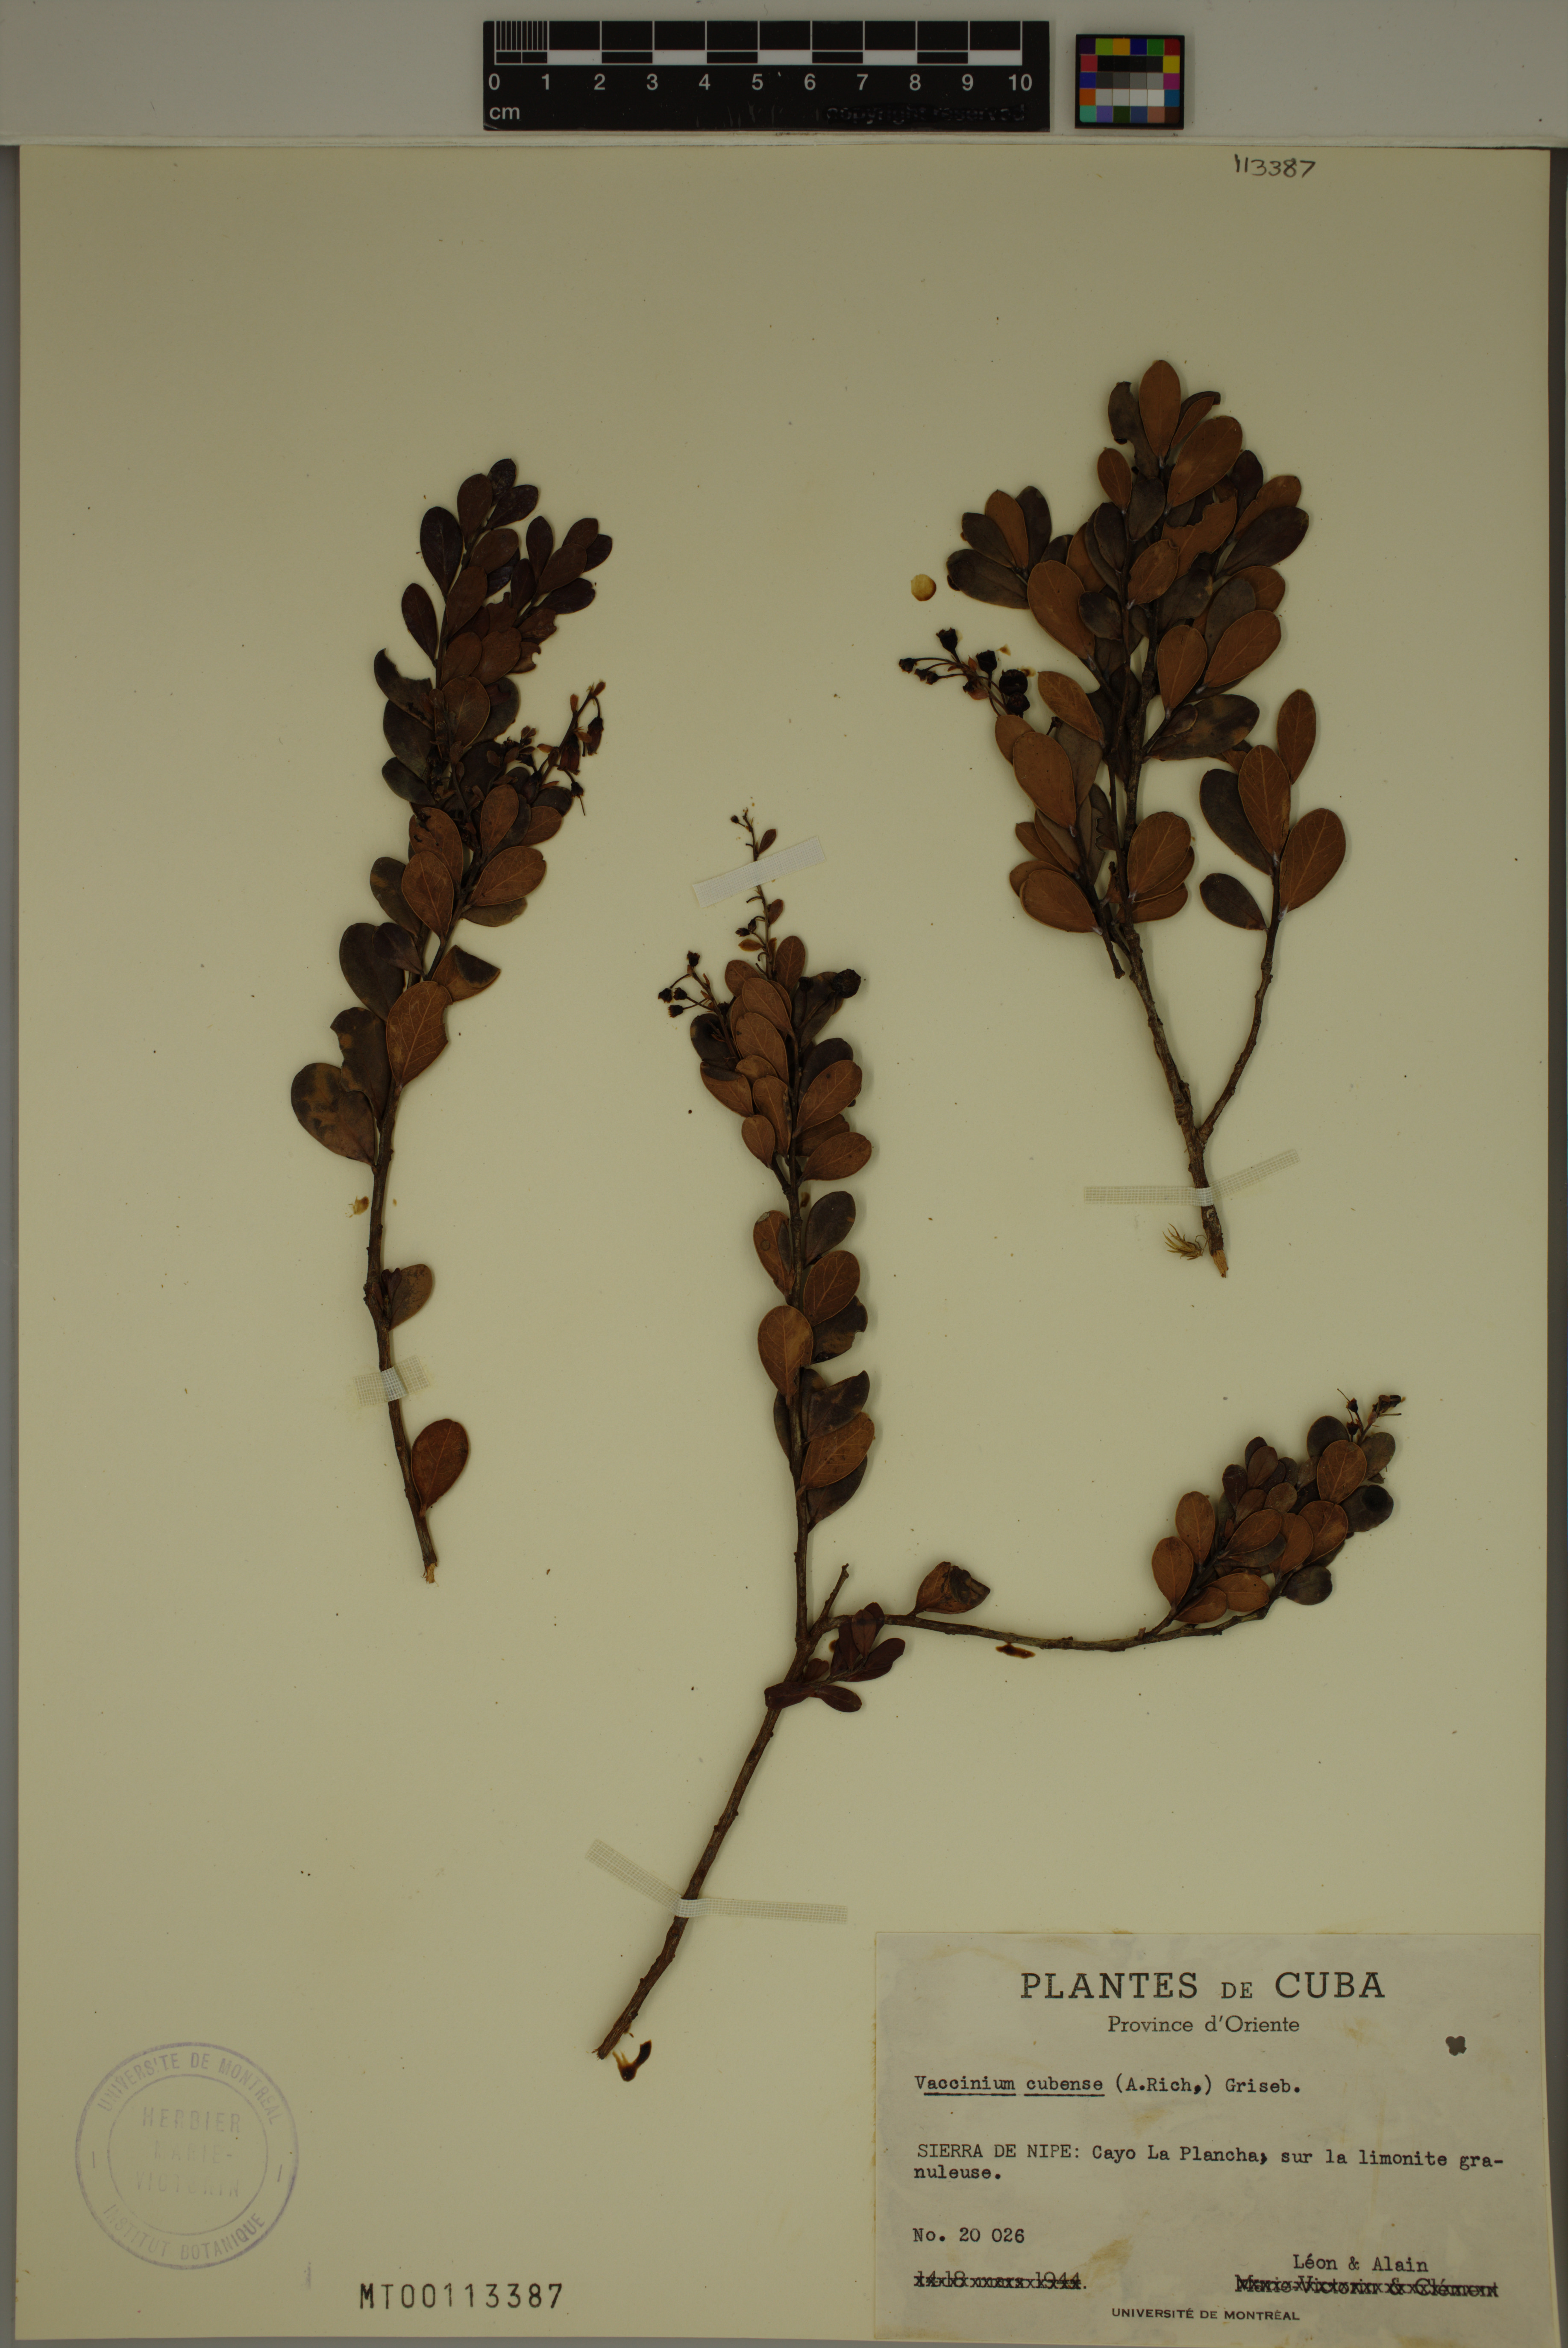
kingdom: Plantae
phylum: Tracheophyta
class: Magnoliopsida
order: Ericales
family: Ericaceae
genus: Vaccinium
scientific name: Vaccinium cubense
